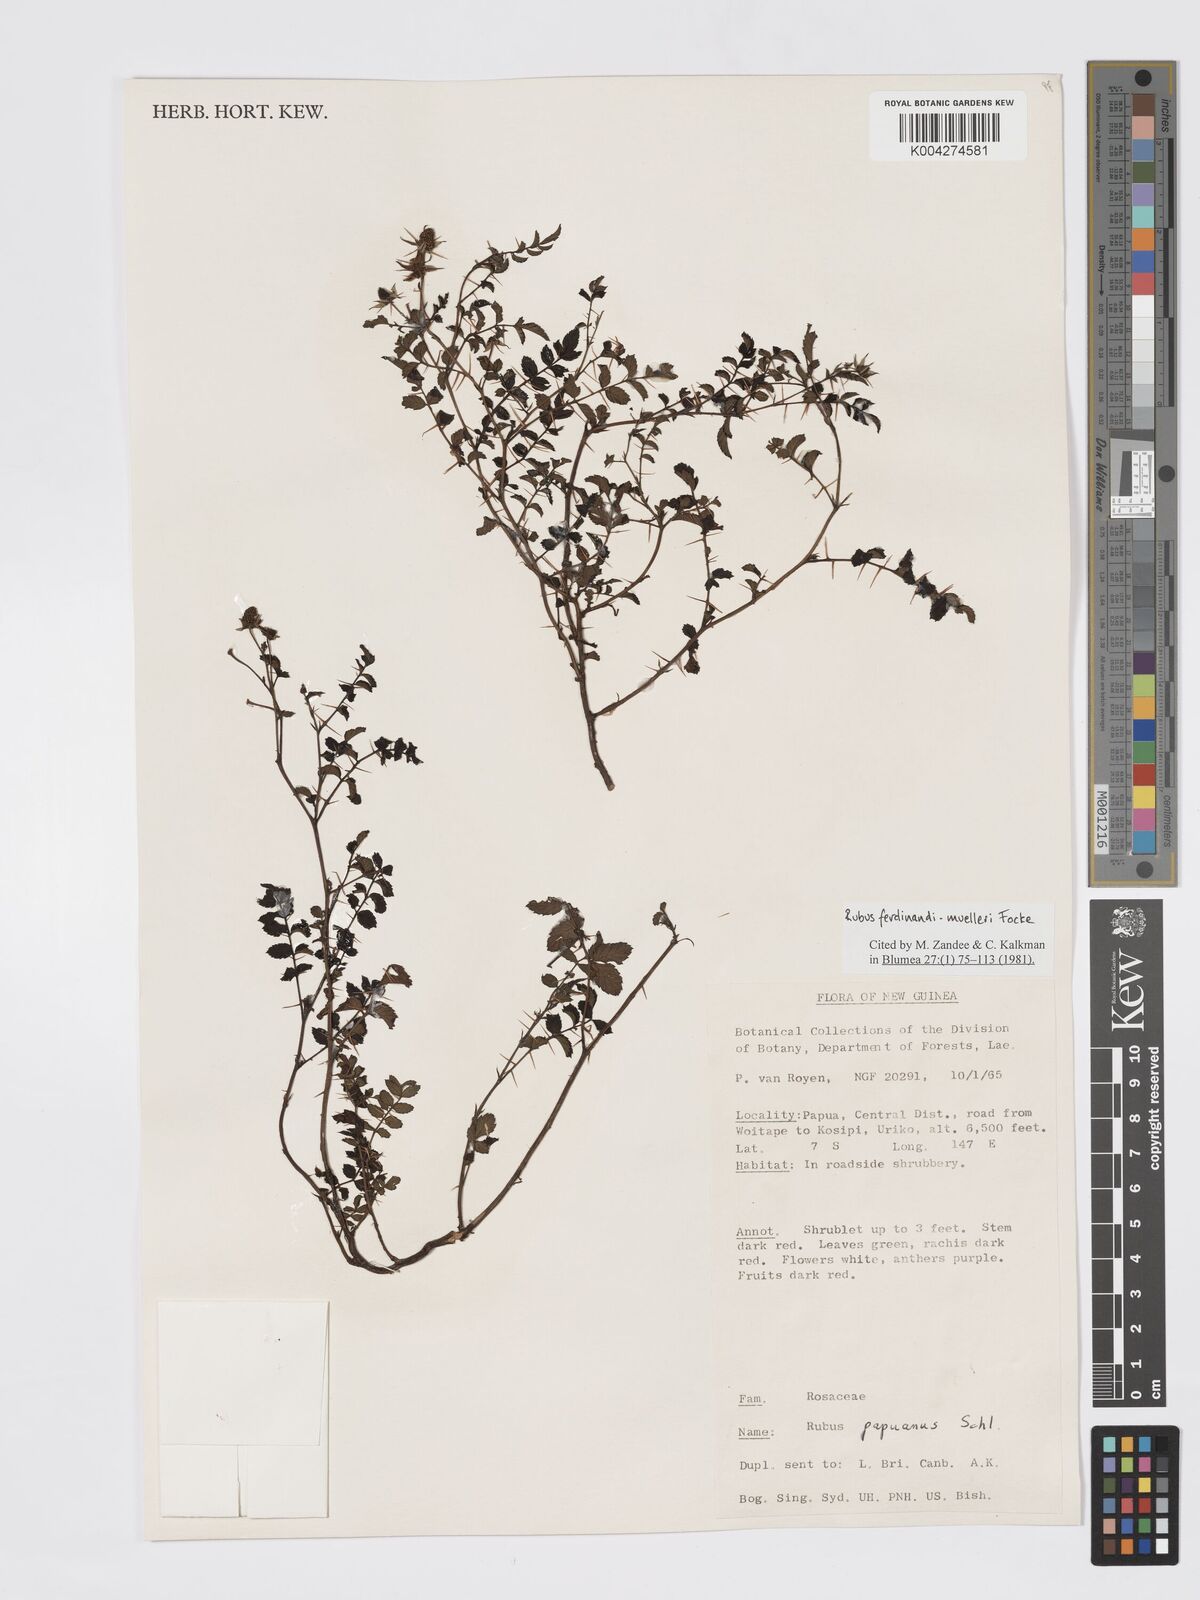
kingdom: Plantae
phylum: Tracheophyta
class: Magnoliopsida
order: Rosales
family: Rosaceae
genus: Rubus
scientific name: Rubus ferdinandimuelleri
